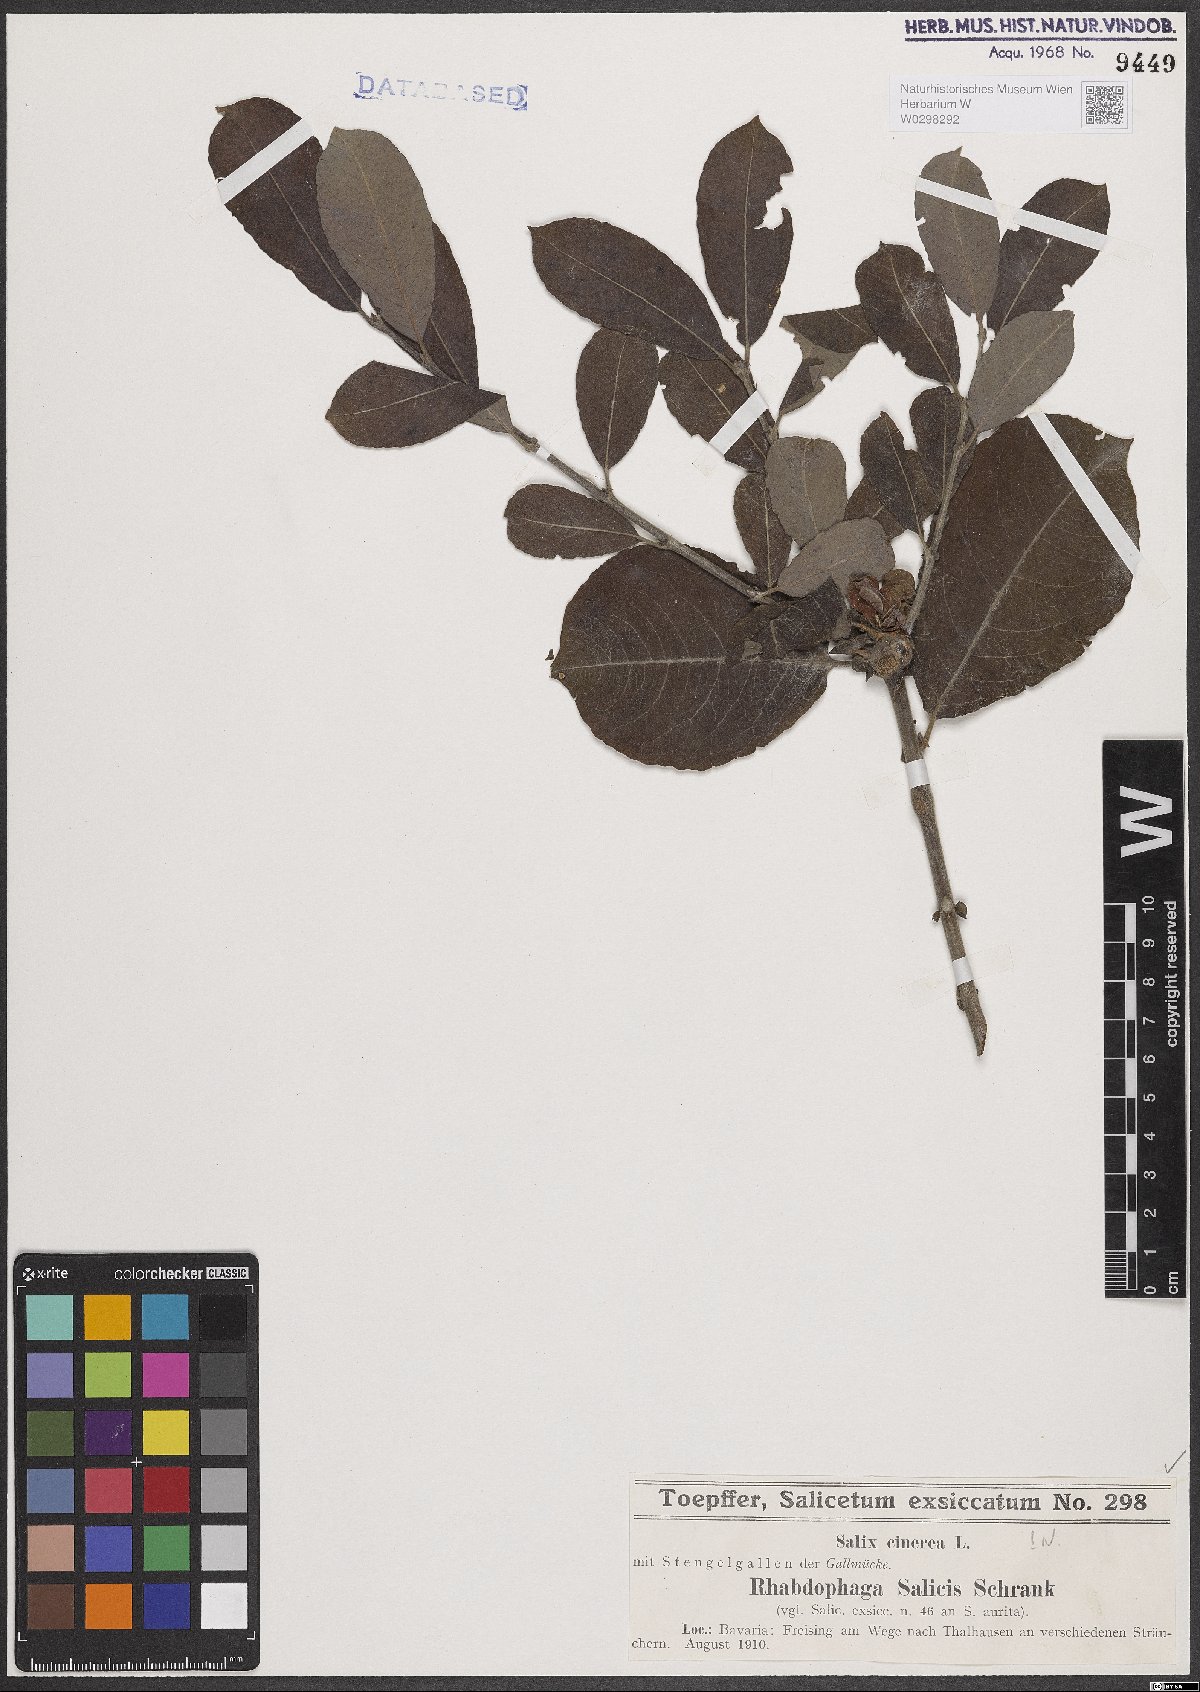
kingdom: Plantae
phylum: Tracheophyta
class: Magnoliopsida
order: Malpighiales
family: Salicaceae
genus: Salix
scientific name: Salix cinerea
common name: Common sallow
